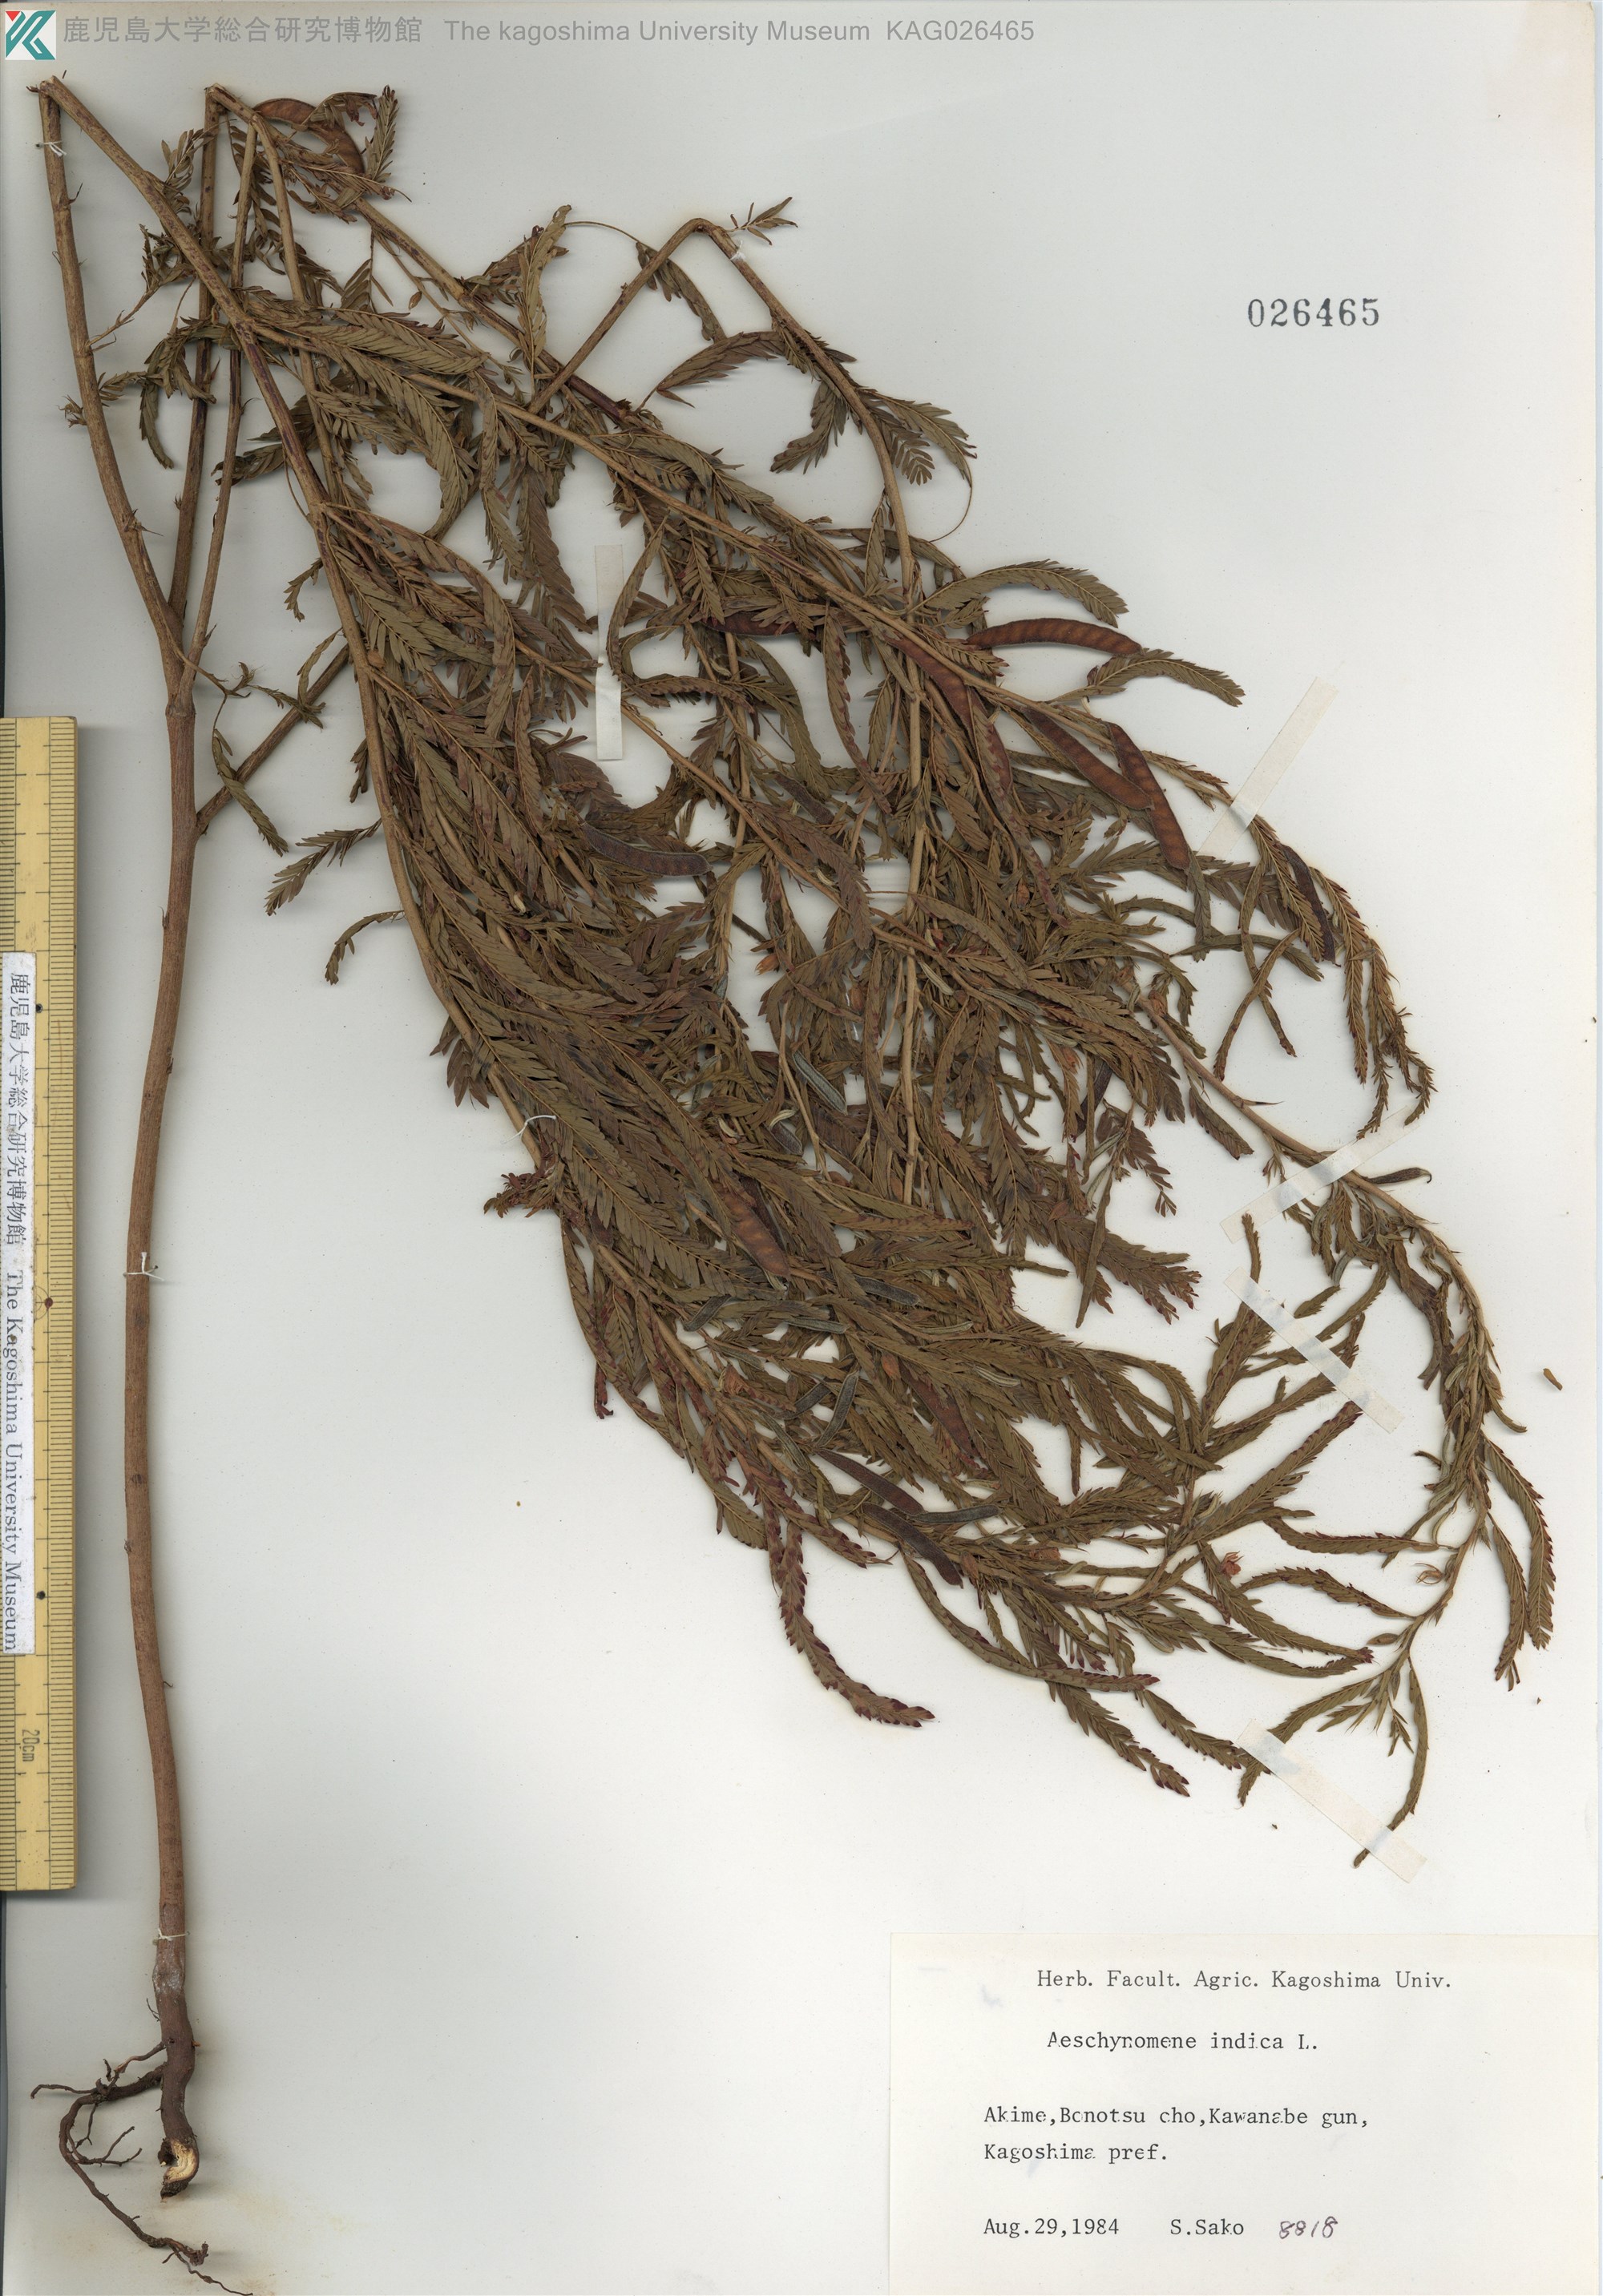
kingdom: Plantae
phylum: Tracheophyta
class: Magnoliopsida
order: Fabales
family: Fabaceae
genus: Chamaecrista
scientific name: Chamaecrista nomame
